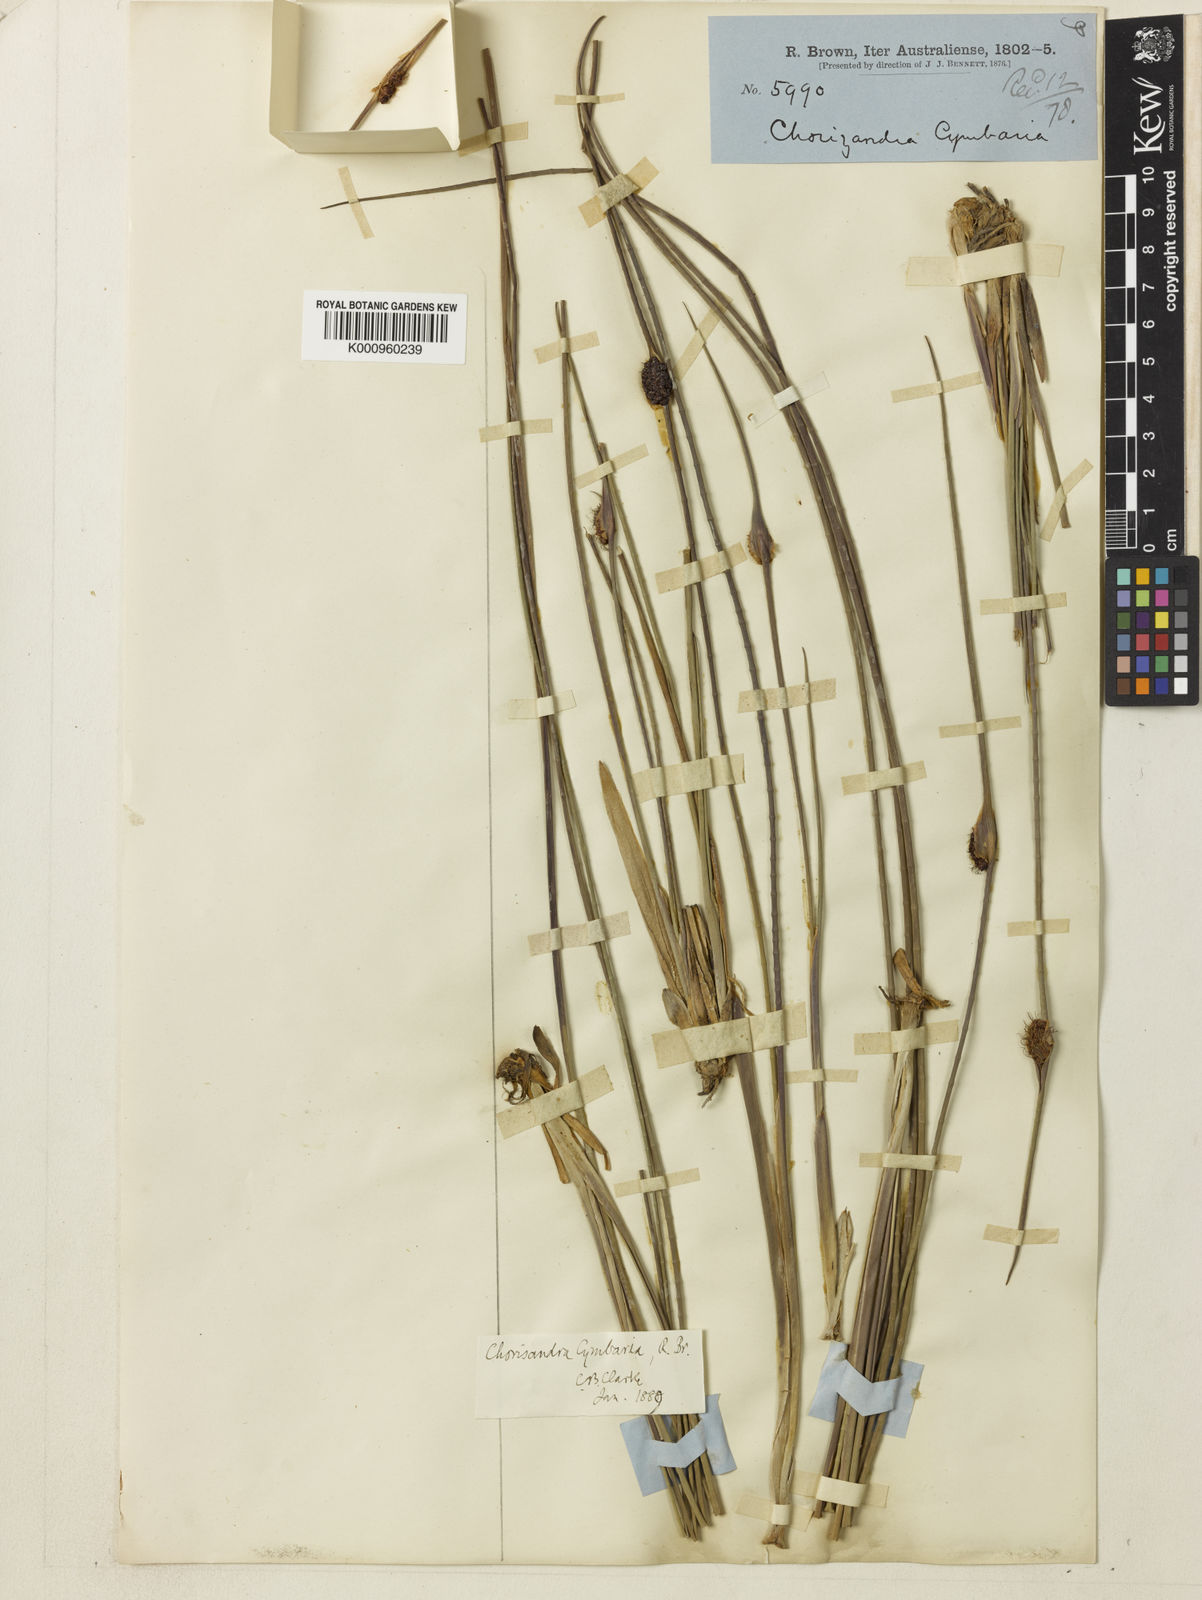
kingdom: Plantae
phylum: Tracheophyta
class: Liliopsida
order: Poales
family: Cyperaceae
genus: Chorizandra
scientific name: Chorizandra cymbaria
